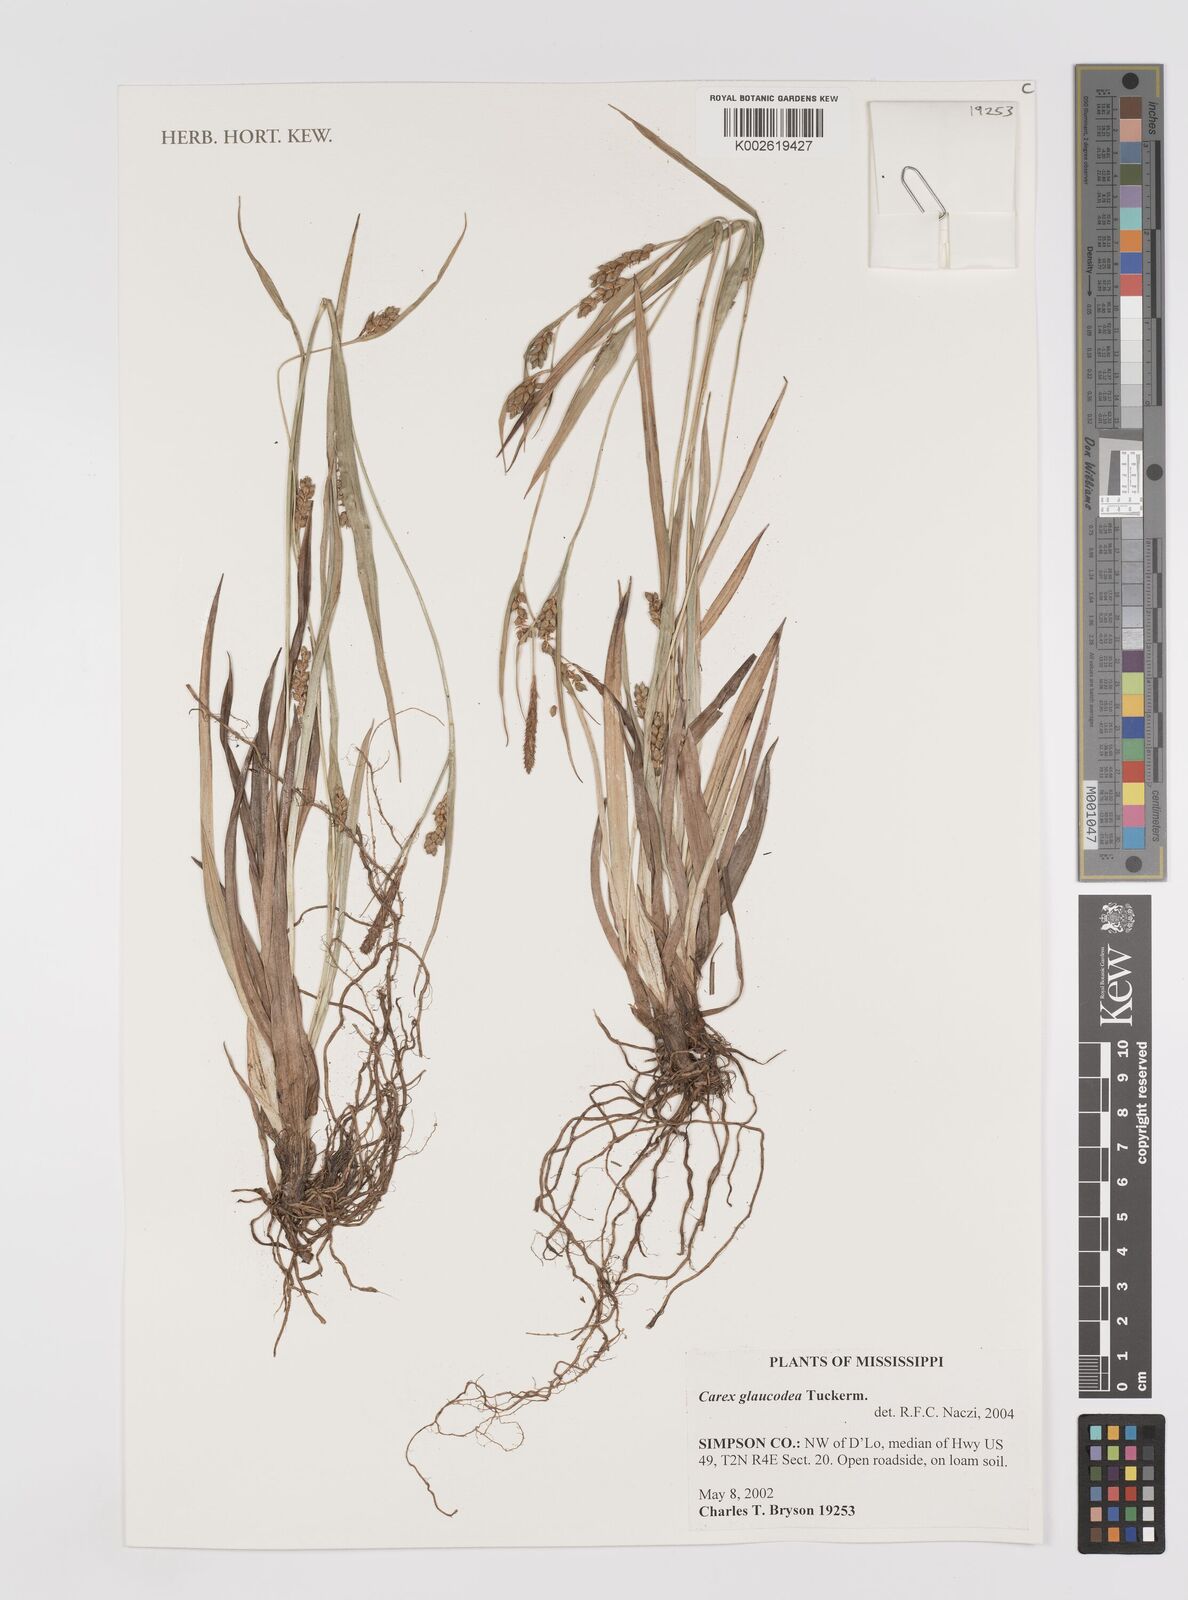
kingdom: Plantae
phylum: Tracheophyta
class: Liliopsida
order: Poales
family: Cyperaceae
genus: Carex
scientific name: Carex glaucodea
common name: Blue sedge
